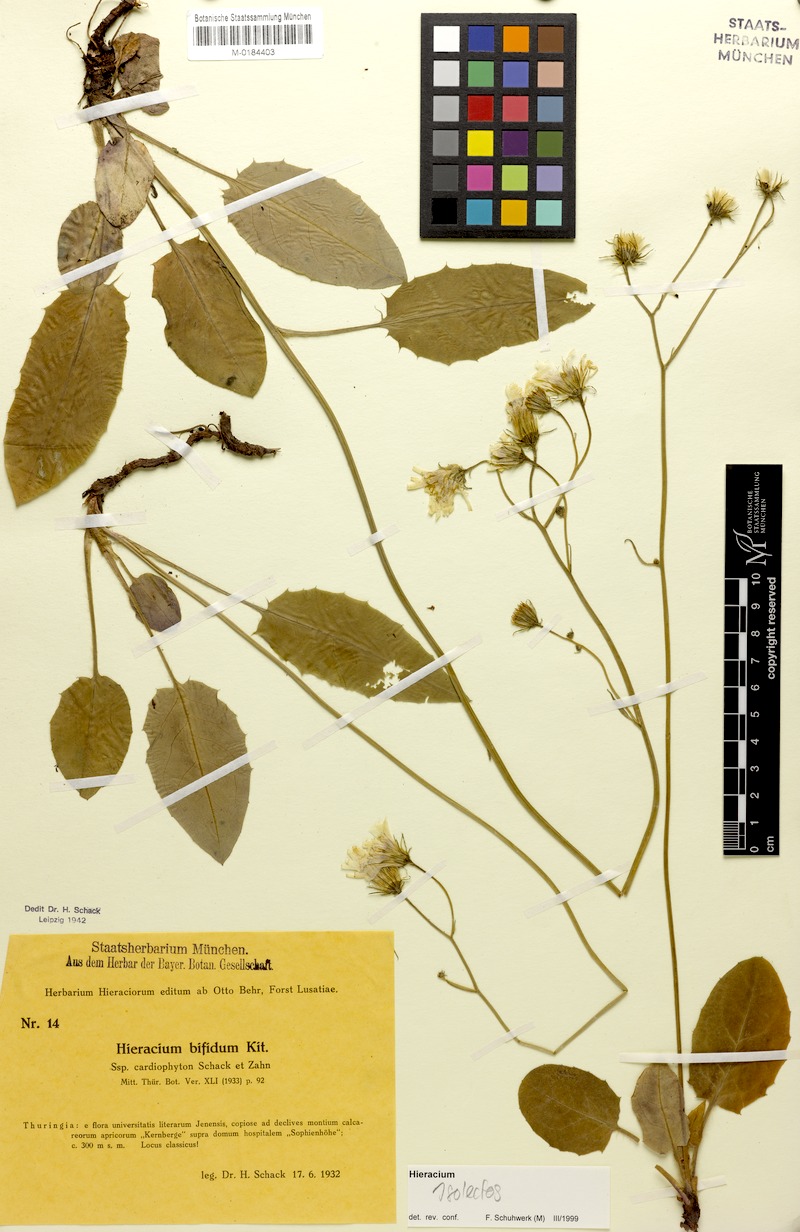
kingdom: Plantae
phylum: Tracheophyta
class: Magnoliopsida
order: Asterales
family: Asteraceae
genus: Hieracium
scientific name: Hieracium bifidum
